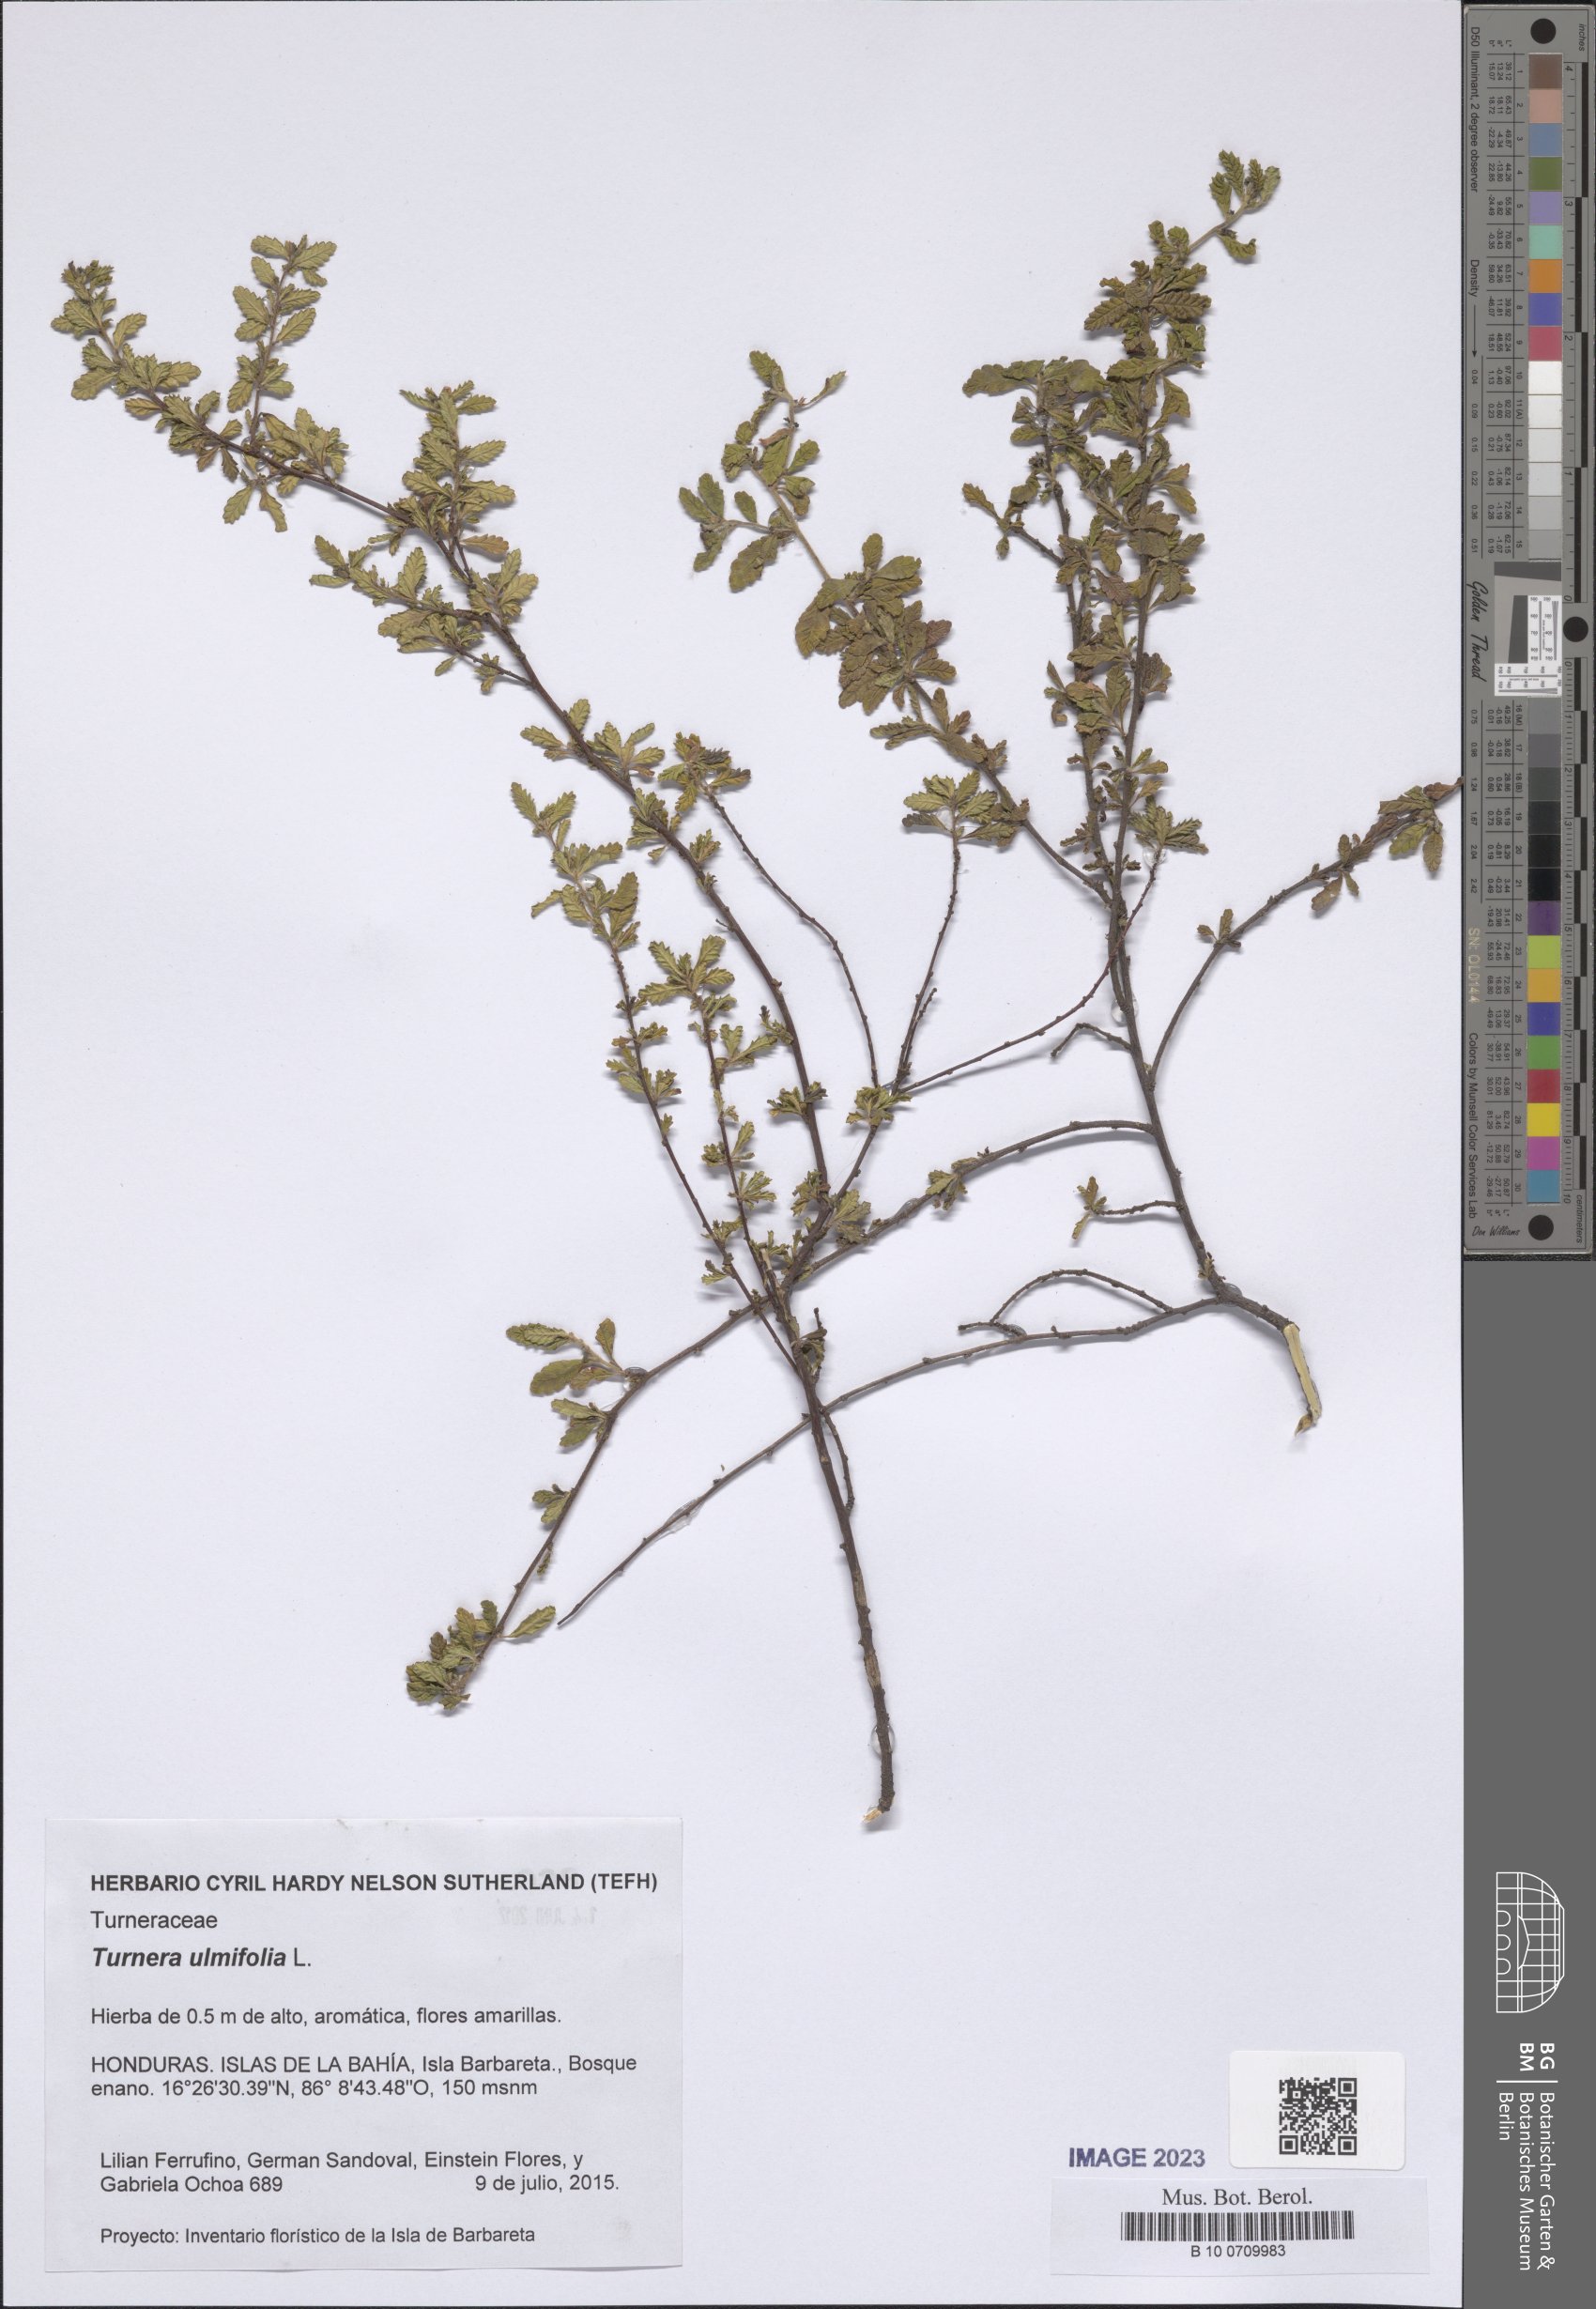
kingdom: Plantae
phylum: Tracheophyta
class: Magnoliopsida
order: Malpighiales
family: Turneraceae
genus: Turnera
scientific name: Turnera ulmifolia
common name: Ramgoat dashalong
